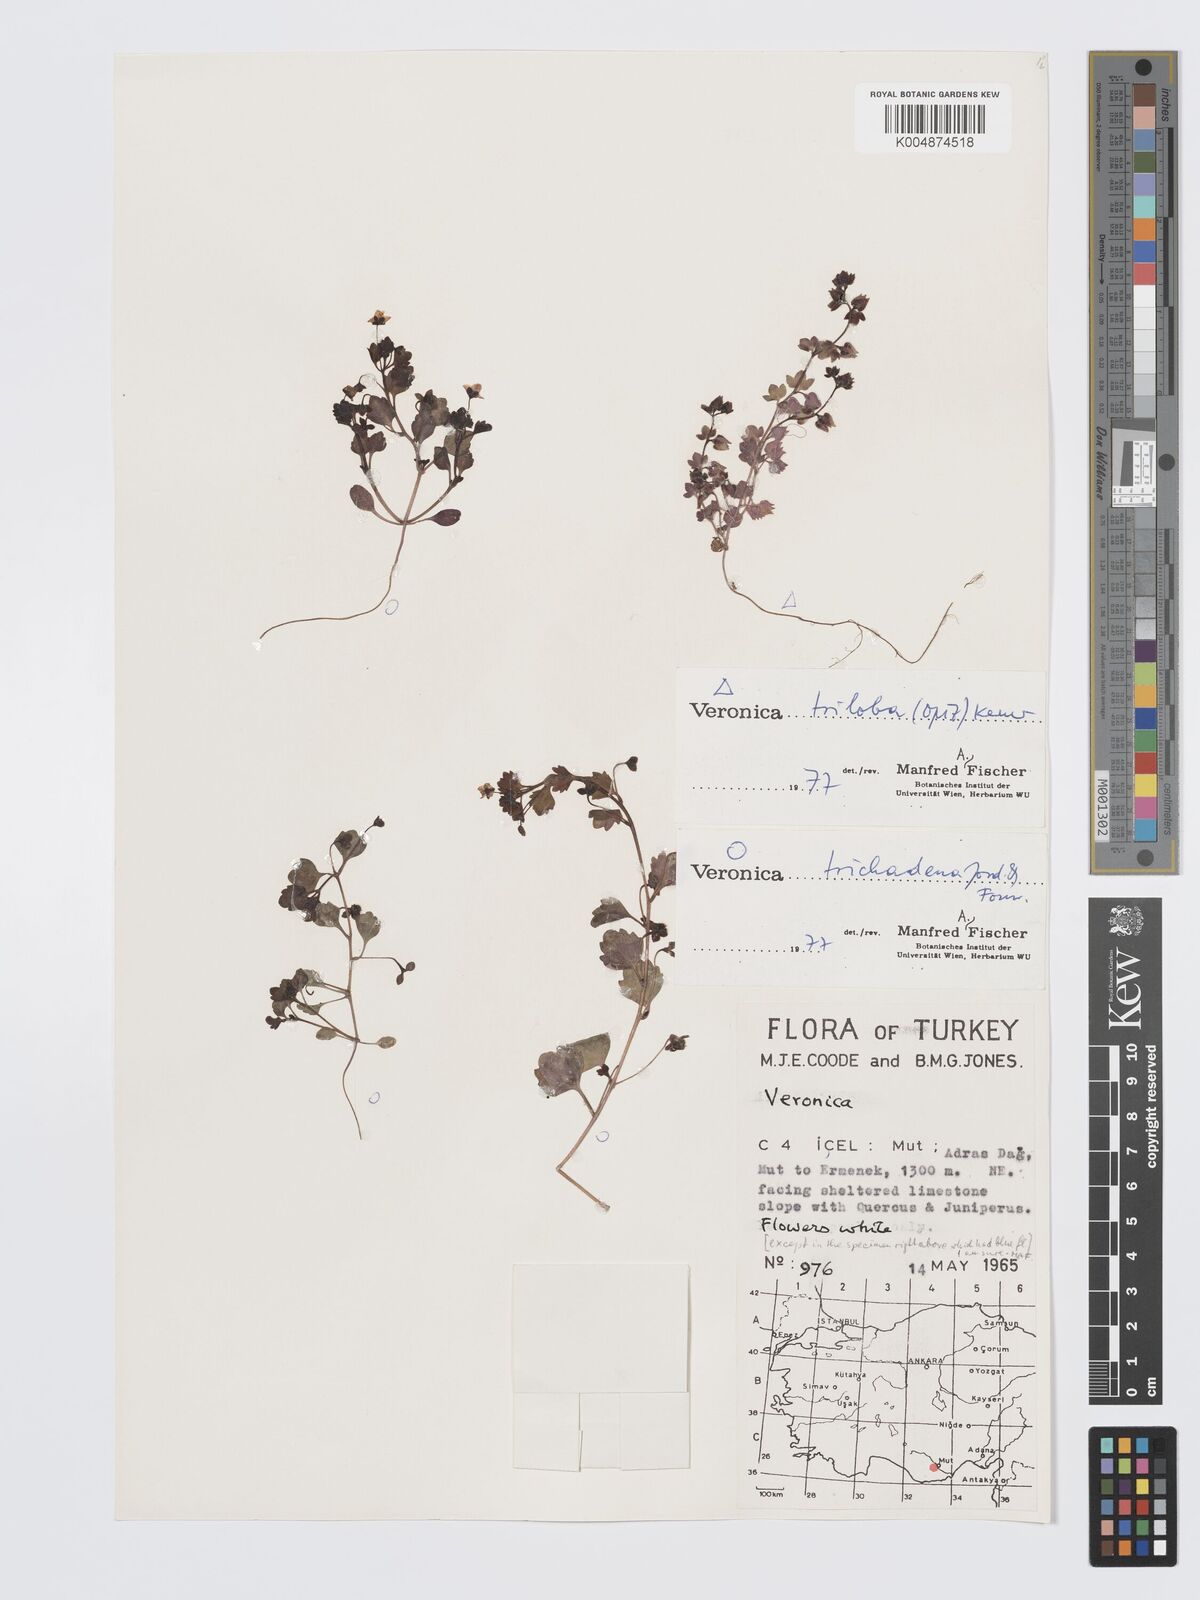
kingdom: Plantae
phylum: Tracheophyta
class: Magnoliopsida
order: Lamiales
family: Plantaginaceae
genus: Veronica
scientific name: Veronica trichadena
